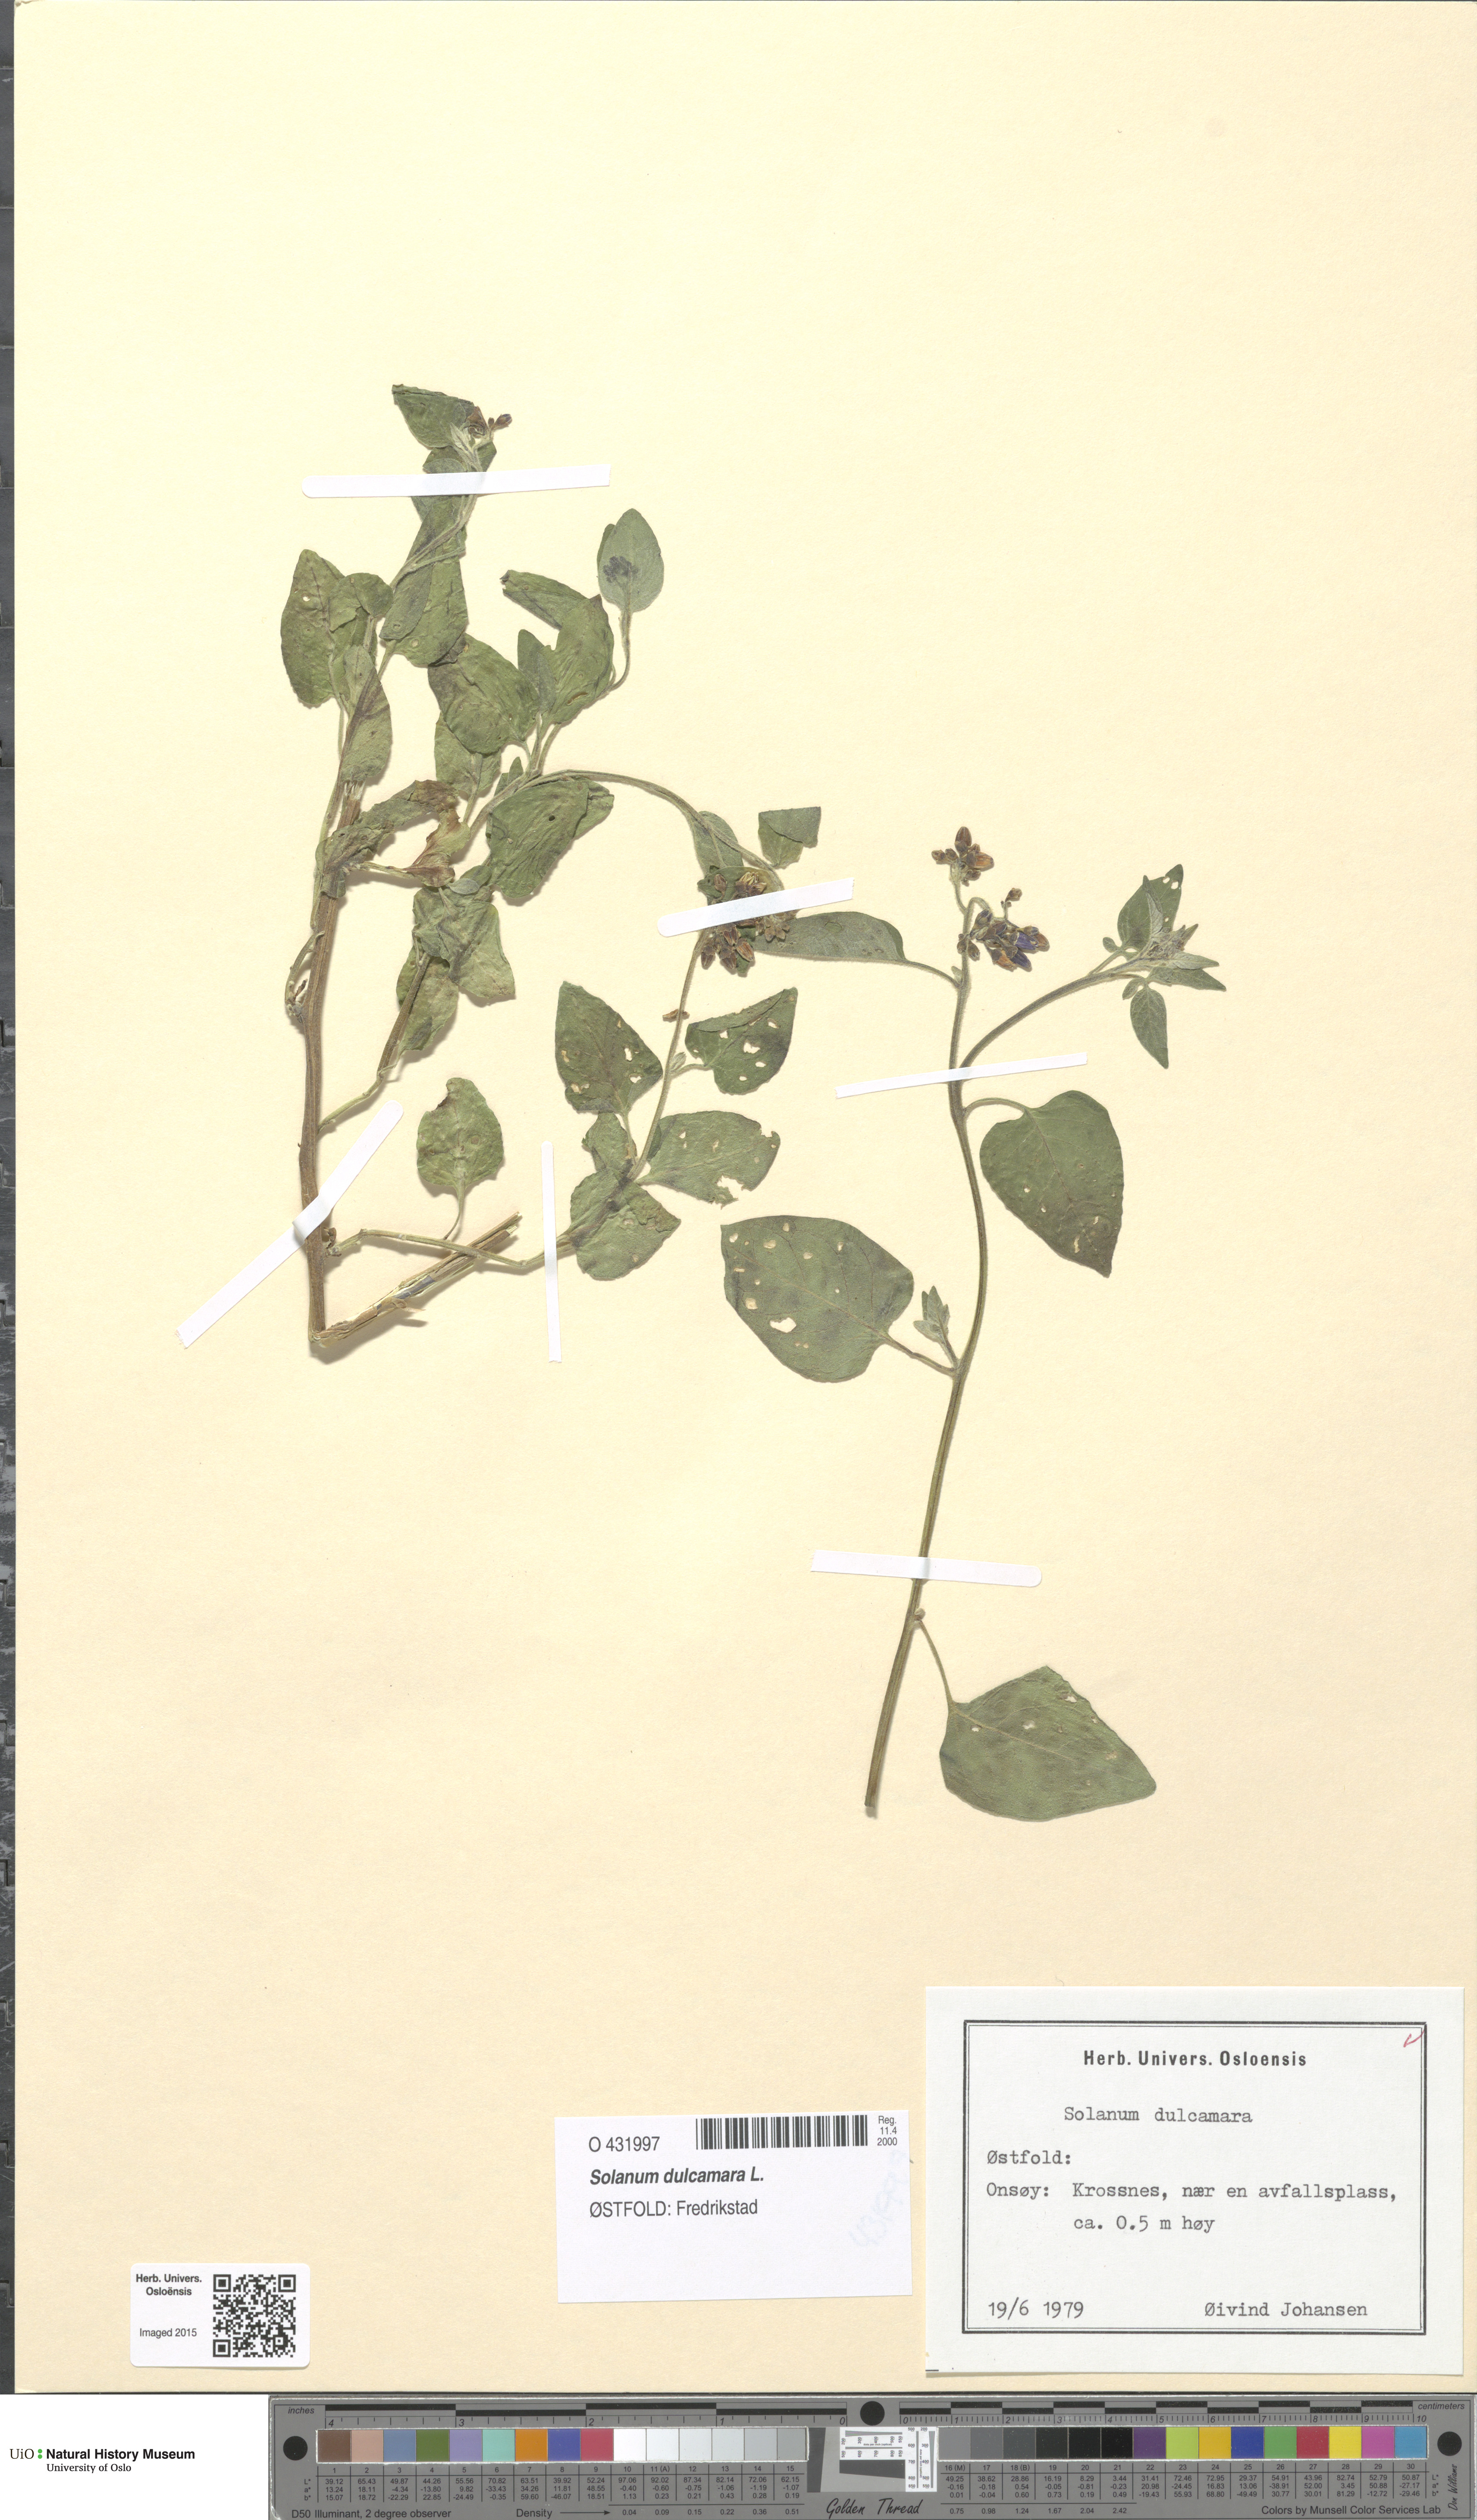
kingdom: Plantae
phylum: Tracheophyta
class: Magnoliopsida
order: Solanales
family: Solanaceae
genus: Solanum
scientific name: Solanum dulcamara
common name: Climbing nightshade
